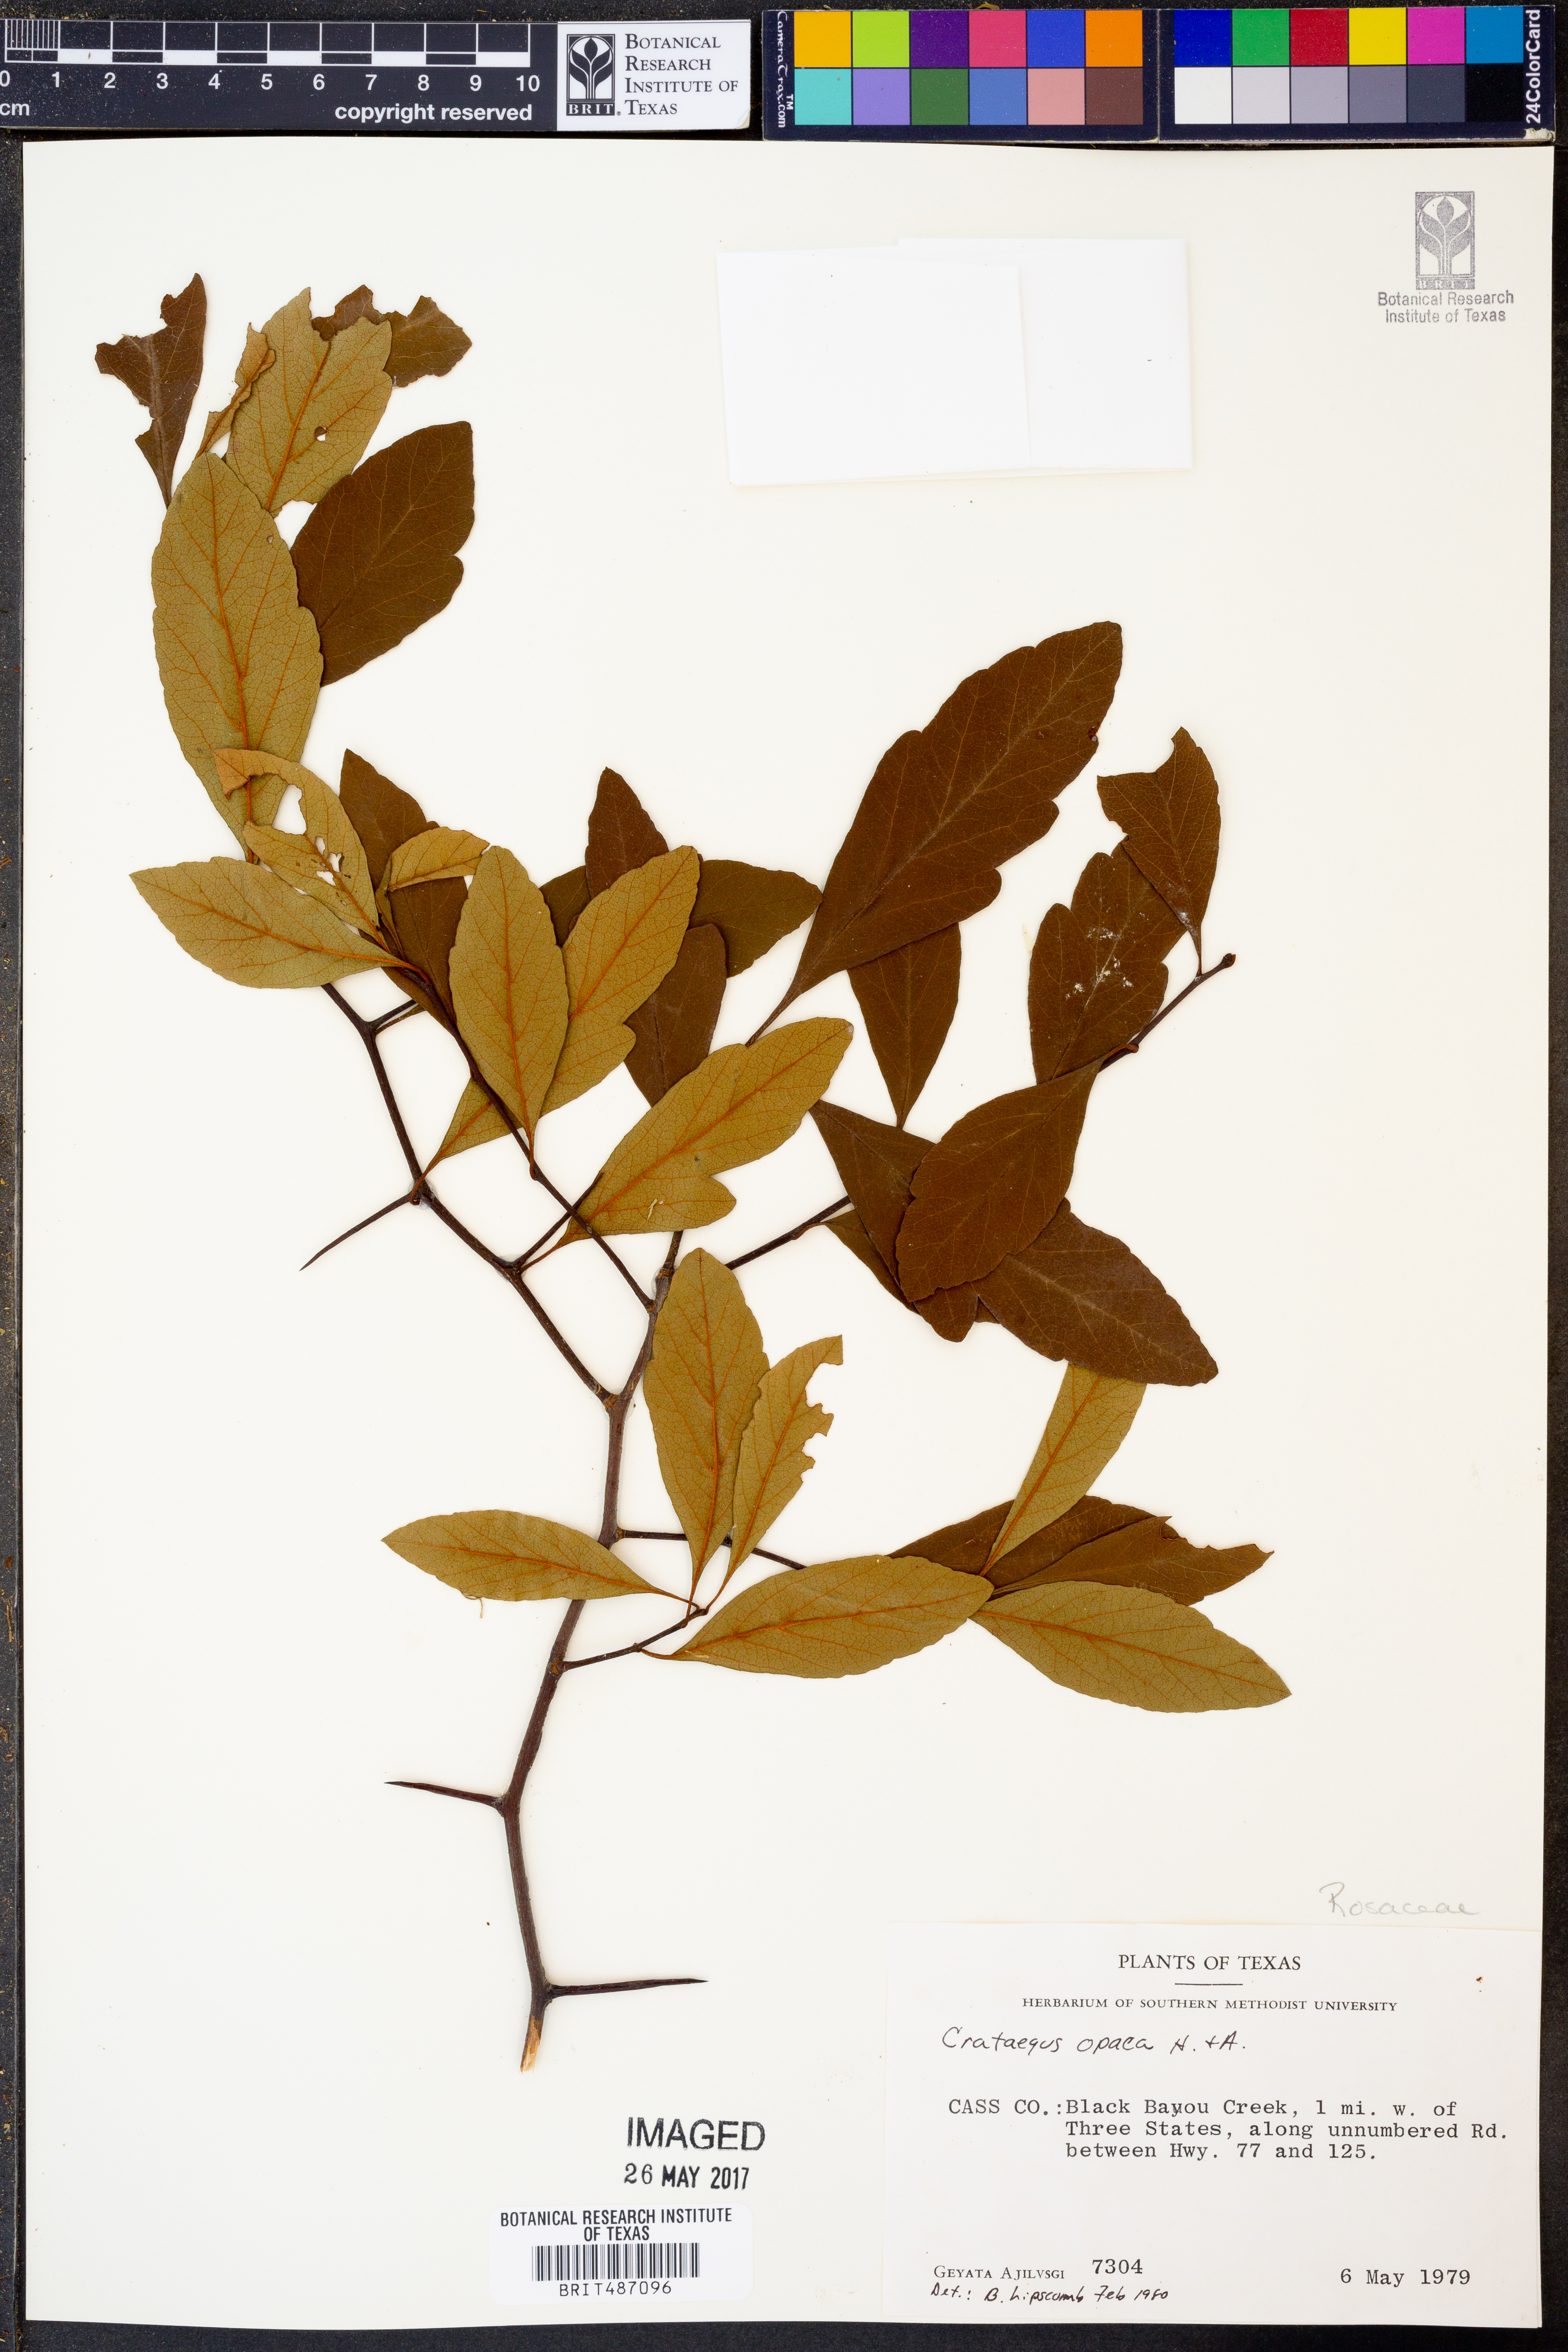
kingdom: Plantae
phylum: Tracheophyta
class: Magnoliopsida
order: Rosales
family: Rosaceae
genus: Crataegus
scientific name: Crataegus opaca
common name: Apple haw
